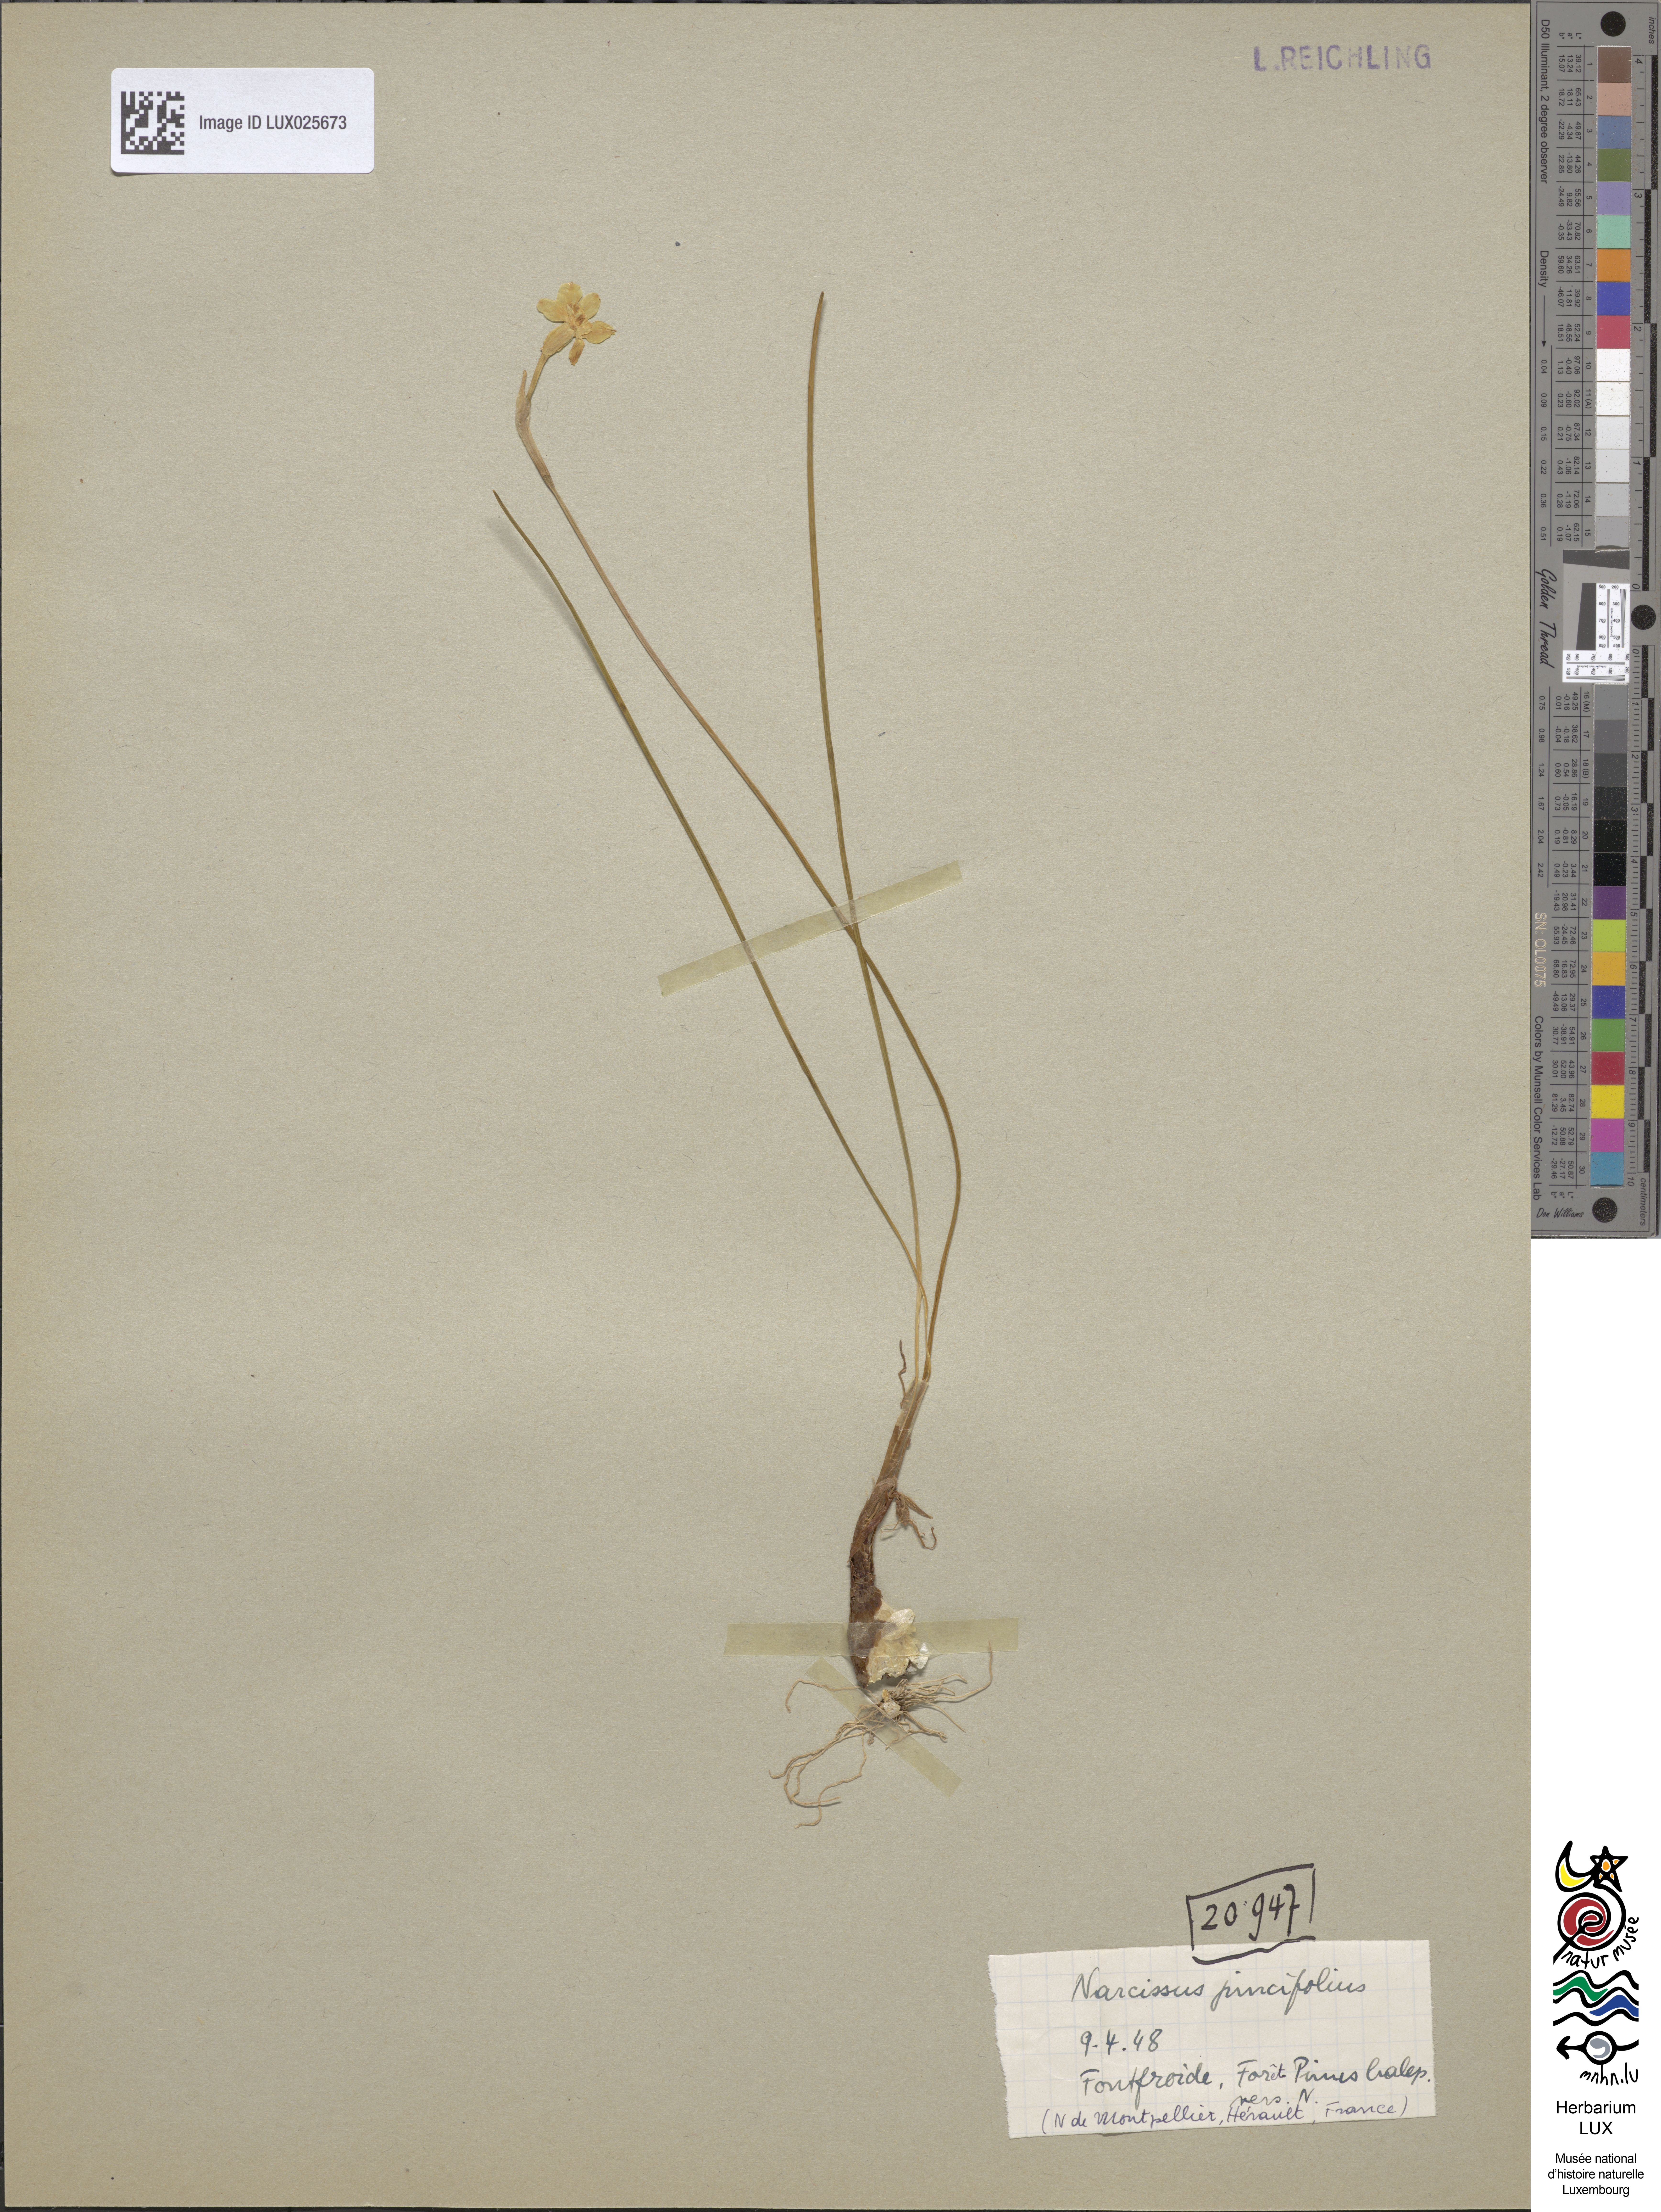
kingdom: Plantae
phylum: Tracheophyta
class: Liliopsida
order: Asparagales
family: Amaryllidaceae
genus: Narcissus
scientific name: Narcissus assoanus
